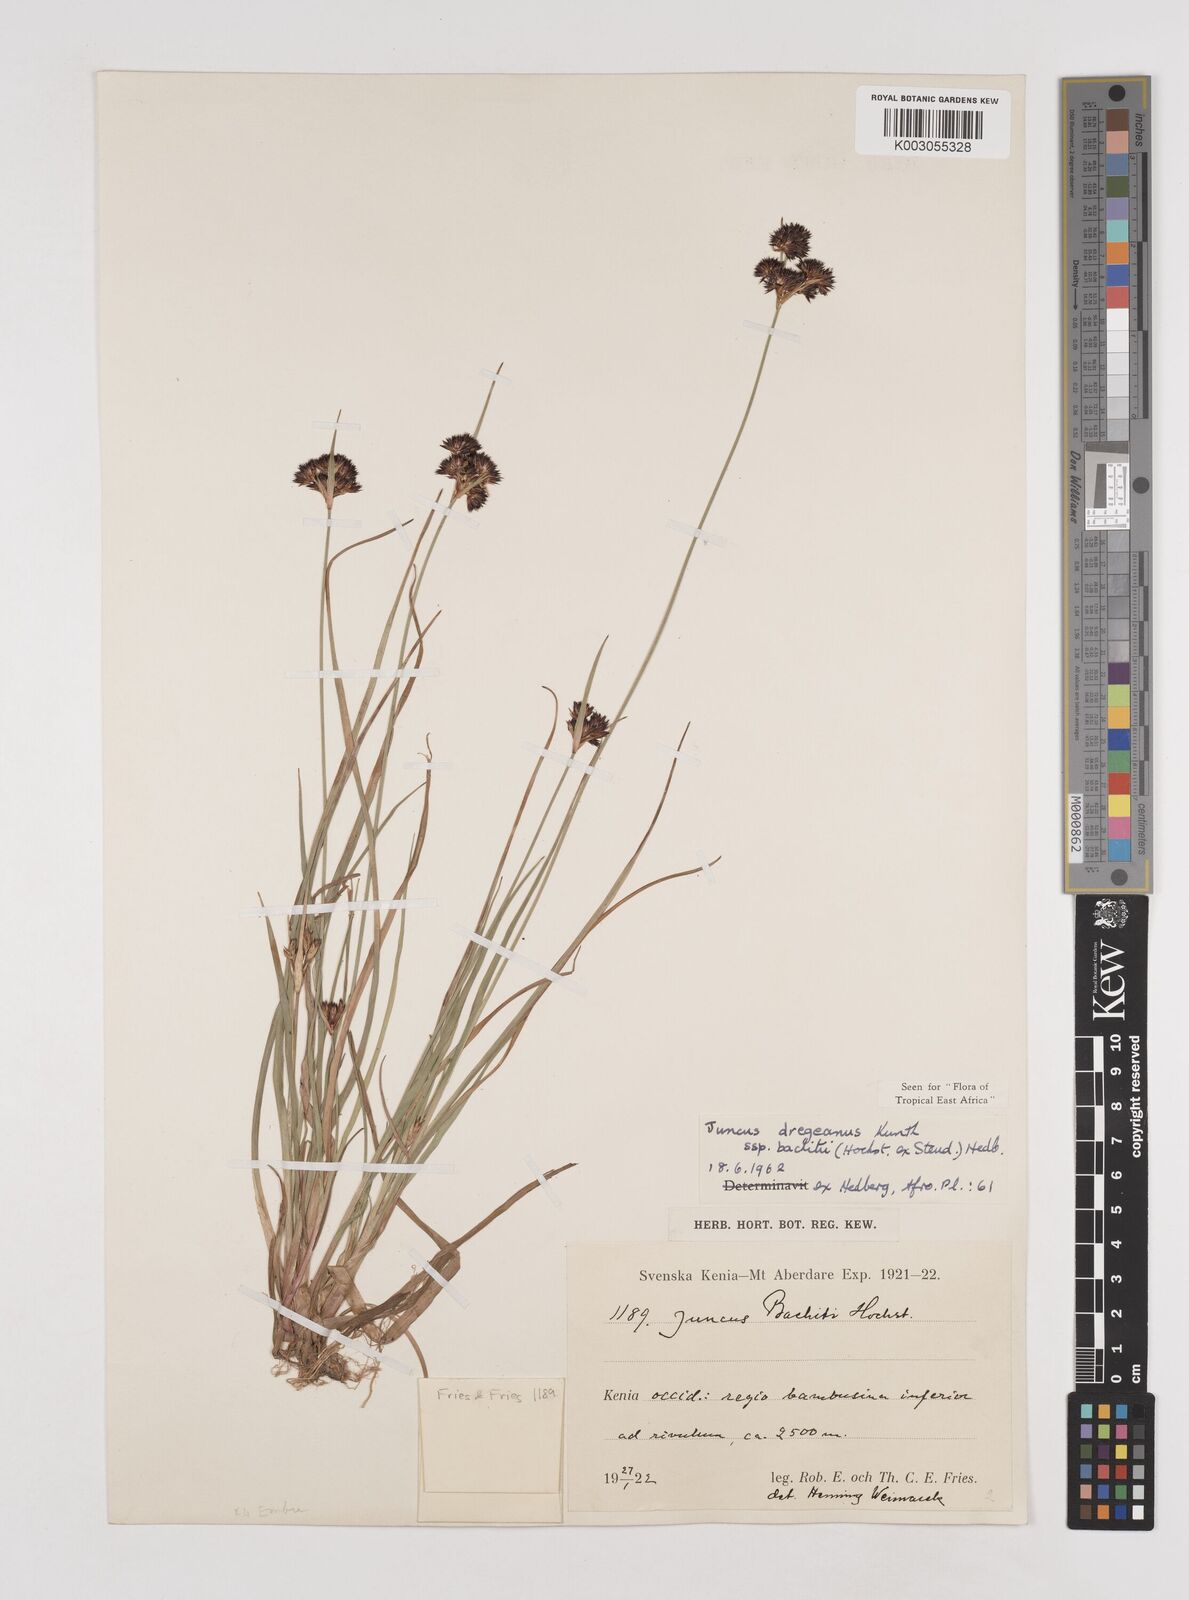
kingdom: Plantae
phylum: Tracheophyta
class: Liliopsida
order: Poales
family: Juncaceae
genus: Juncus
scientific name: Juncus dregeanus
